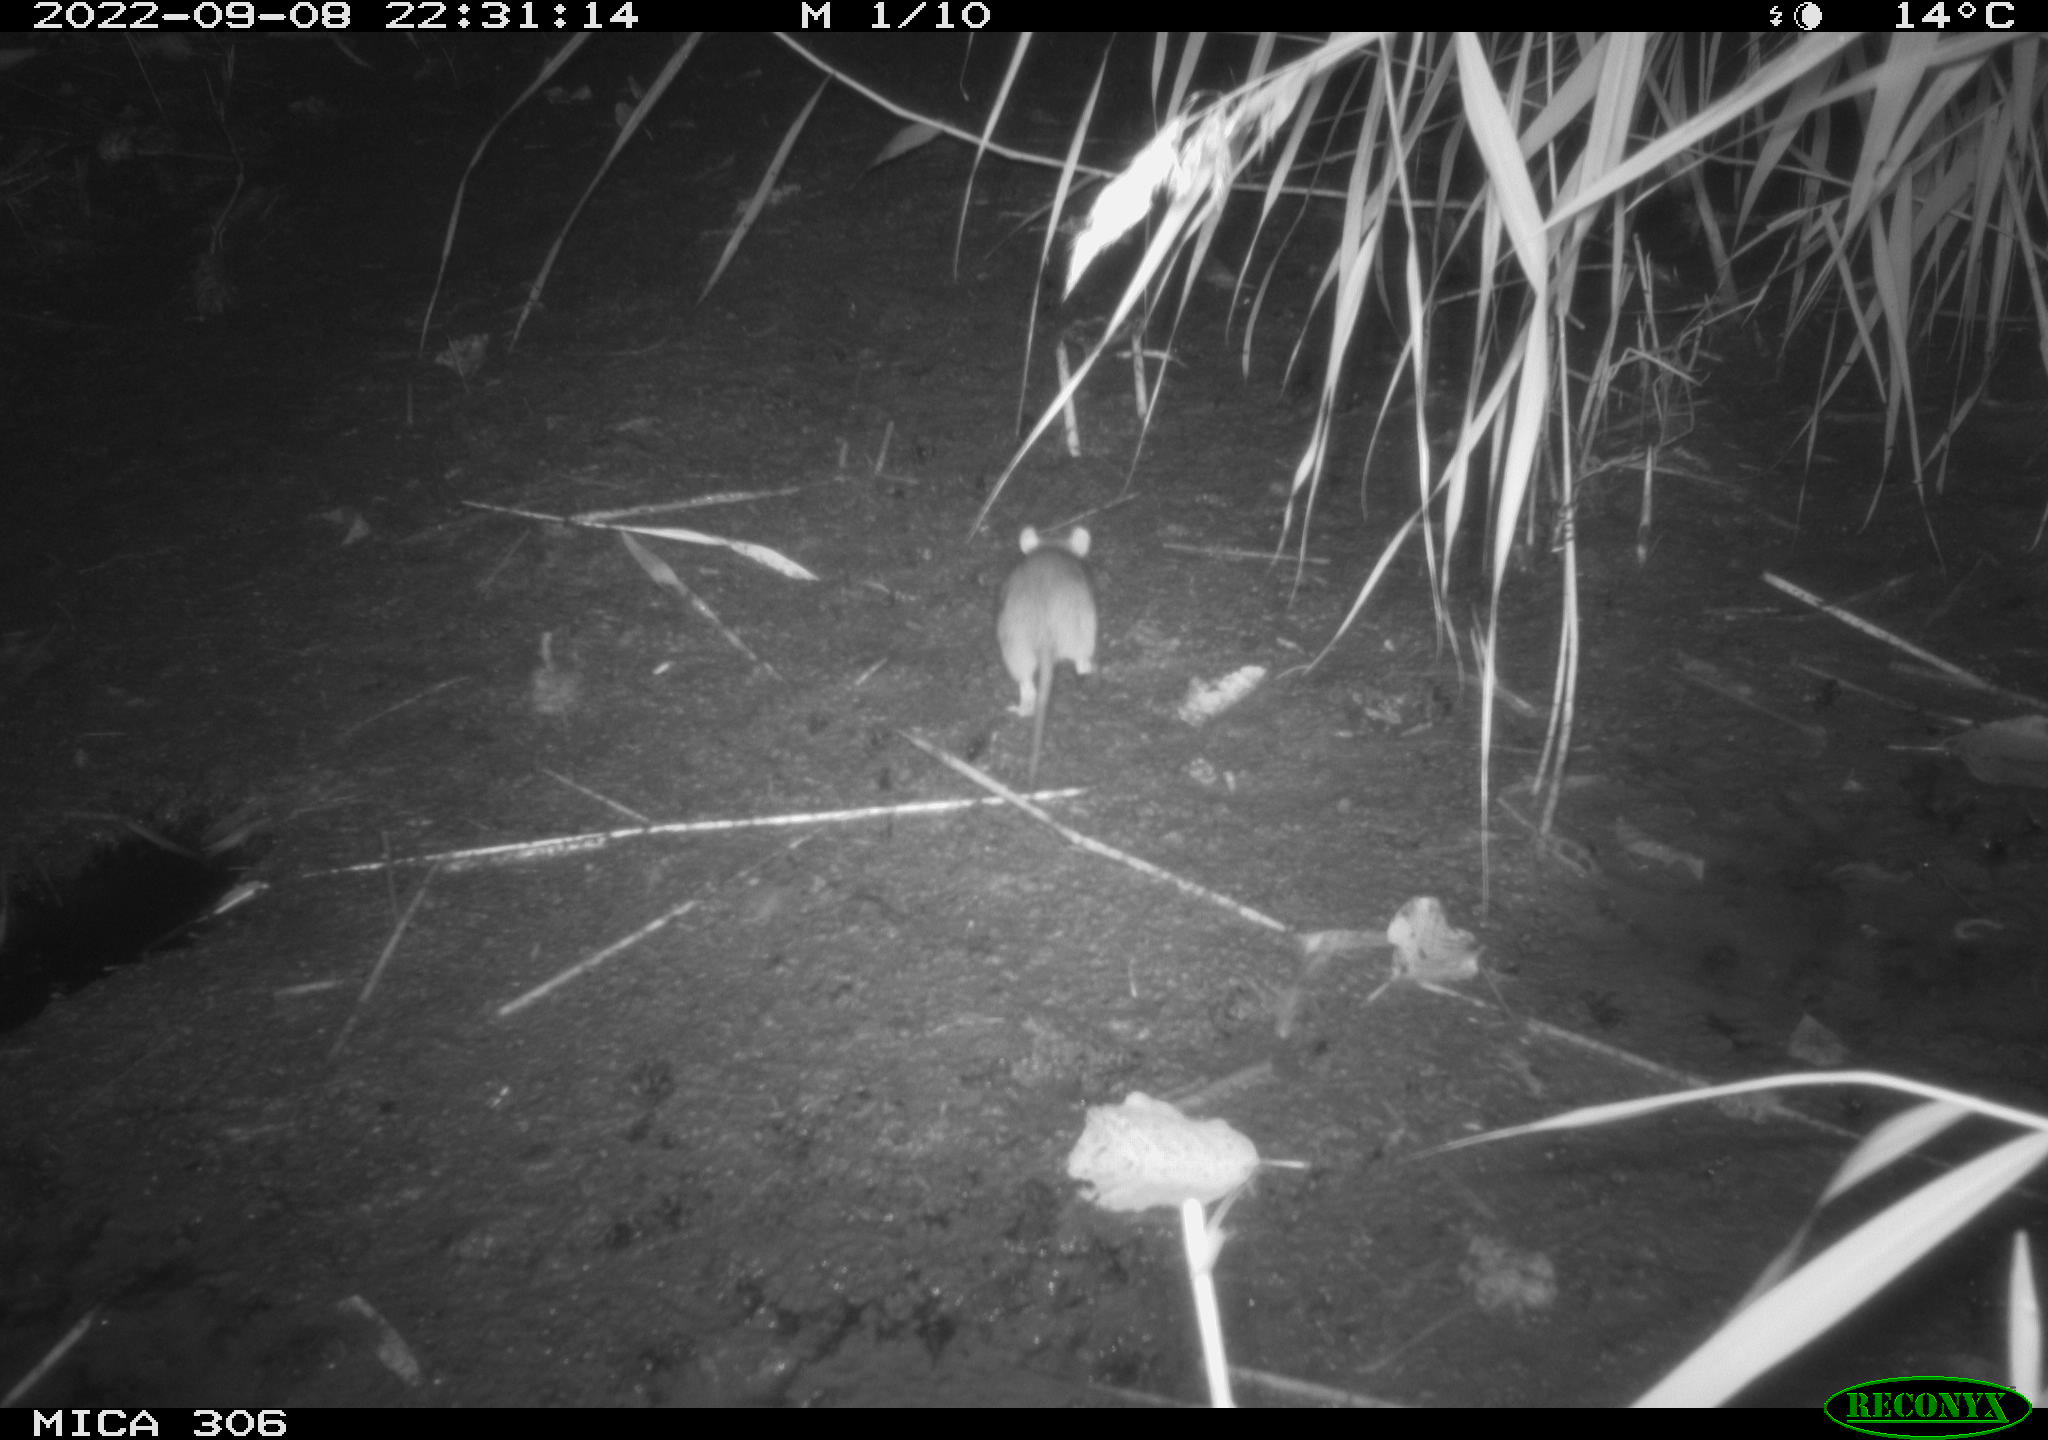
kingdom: Animalia
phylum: Chordata
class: Mammalia
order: Rodentia
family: Muridae
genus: Rattus
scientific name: Rattus norvegicus
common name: Brown rat
